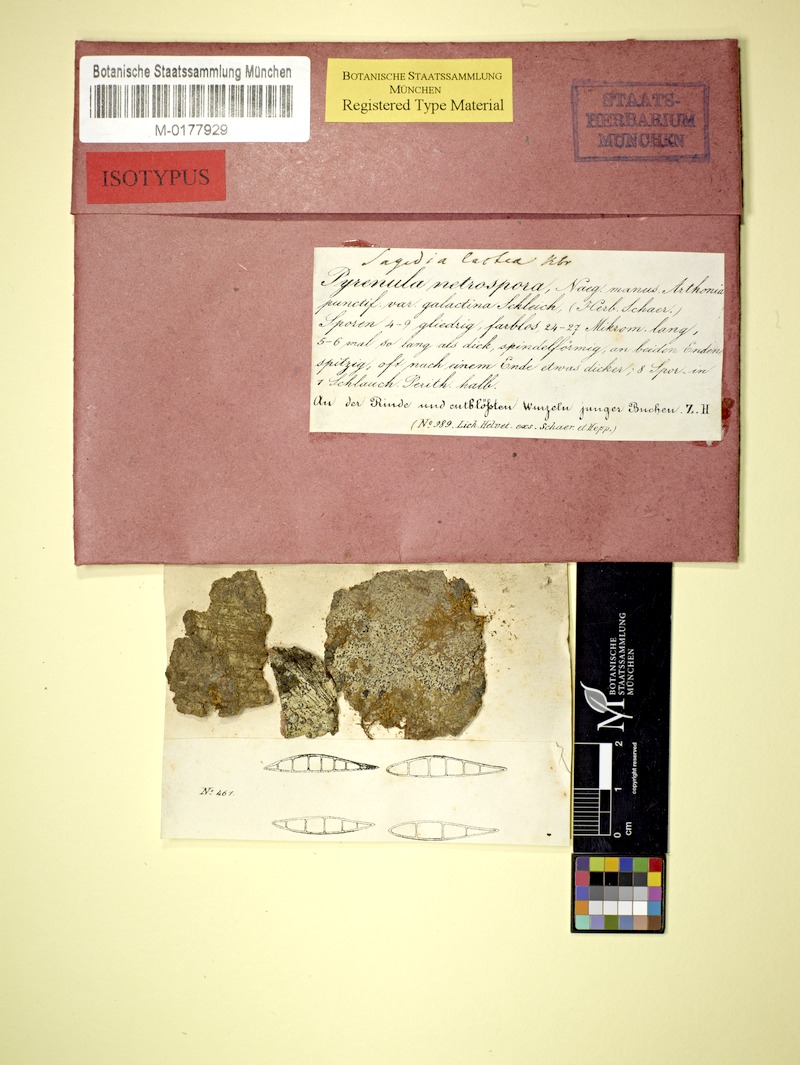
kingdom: Fungi
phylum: Ascomycota
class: Dothideomycetes
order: Strigulales
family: Strigulaceae
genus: Swinscowia
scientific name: Swinscowia glabra
